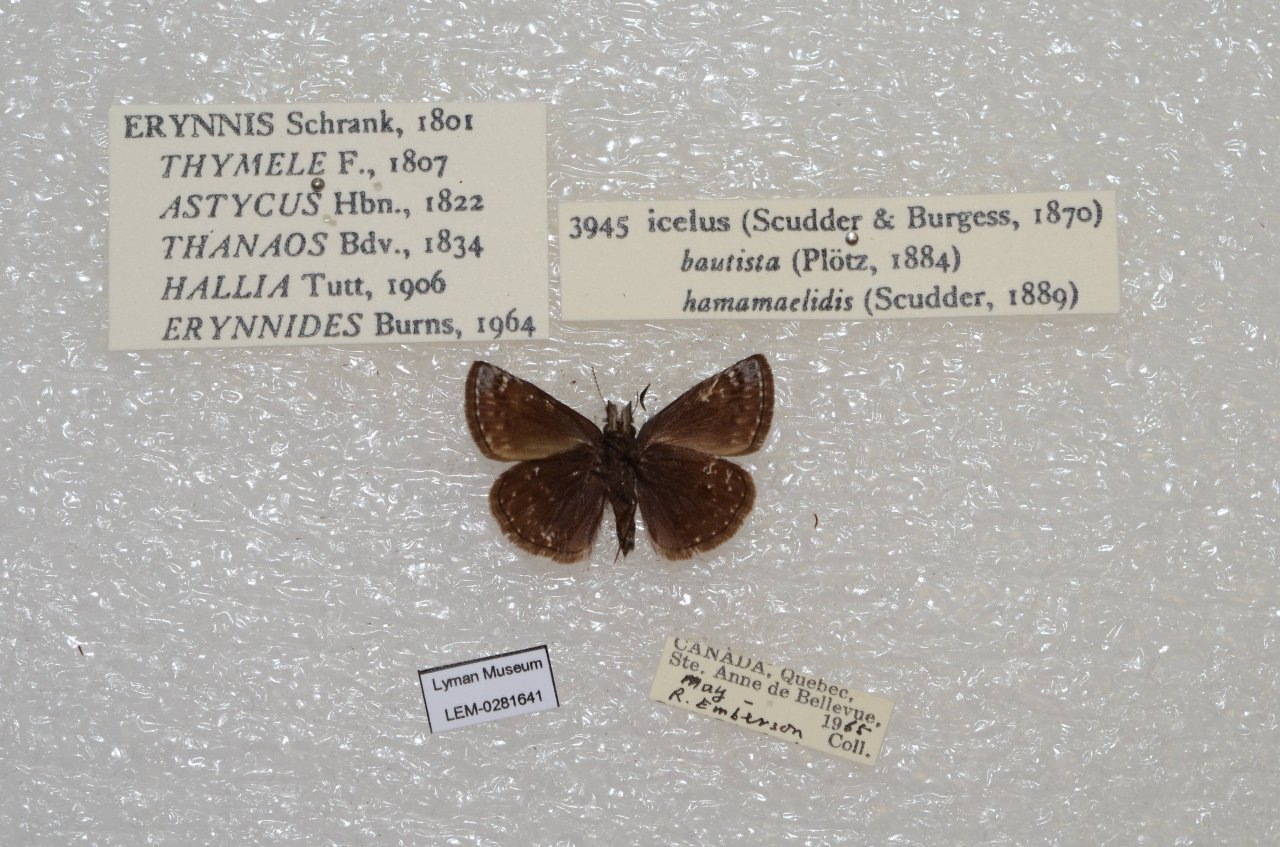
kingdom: Animalia
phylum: Arthropoda
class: Insecta
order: Lepidoptera
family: Hesperiidae
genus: Erynnis
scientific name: Erynnis icelus
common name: Dreamy Duskywing
